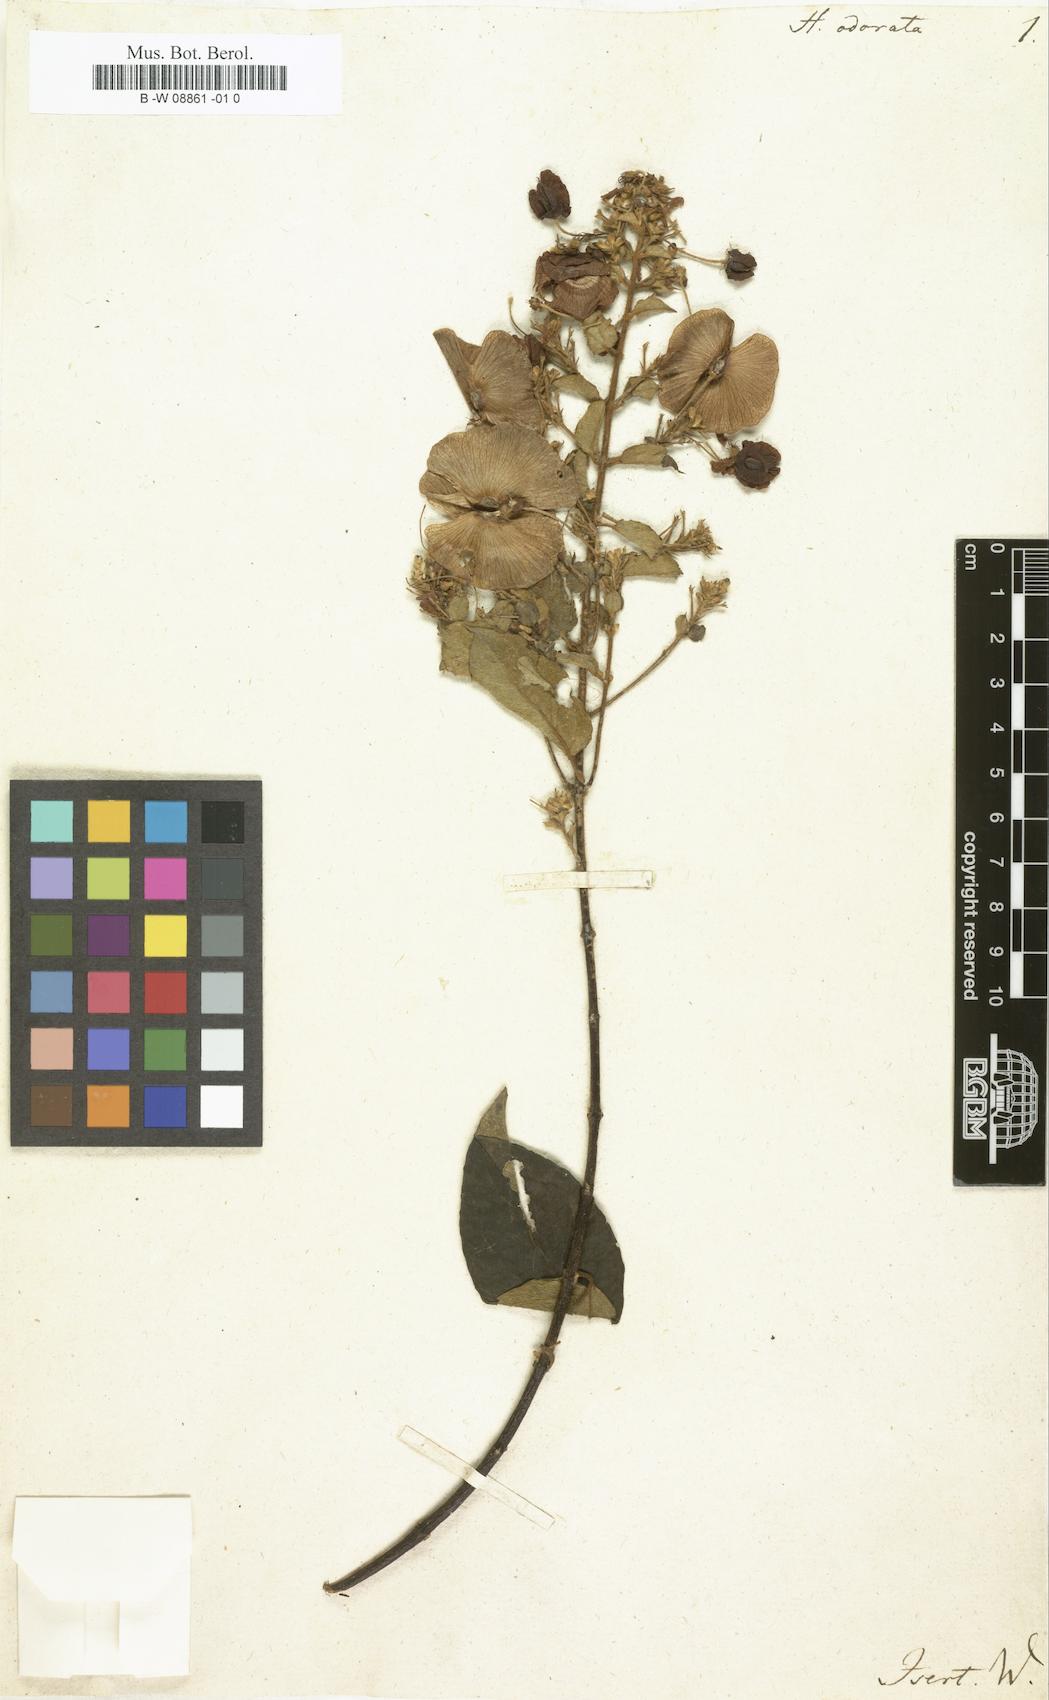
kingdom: Plantae
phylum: Tracheophyta
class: Magnoliopsida
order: Malpighiales
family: Malpighiaceae
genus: Triaspis
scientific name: Triaspis odorata
